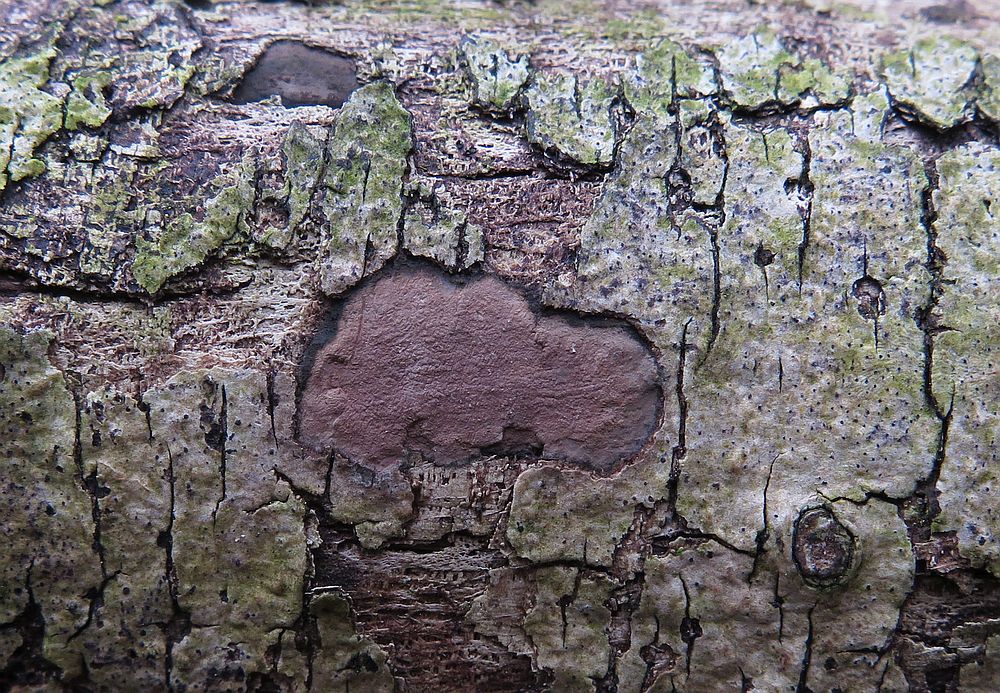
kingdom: Fungi
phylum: Ascomycota
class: Sordariomycetes
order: Xylariales
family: Hypoxylaceae
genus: Hypoxylon
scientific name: Hypoxylon petriniae
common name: nedsænket kulbær
